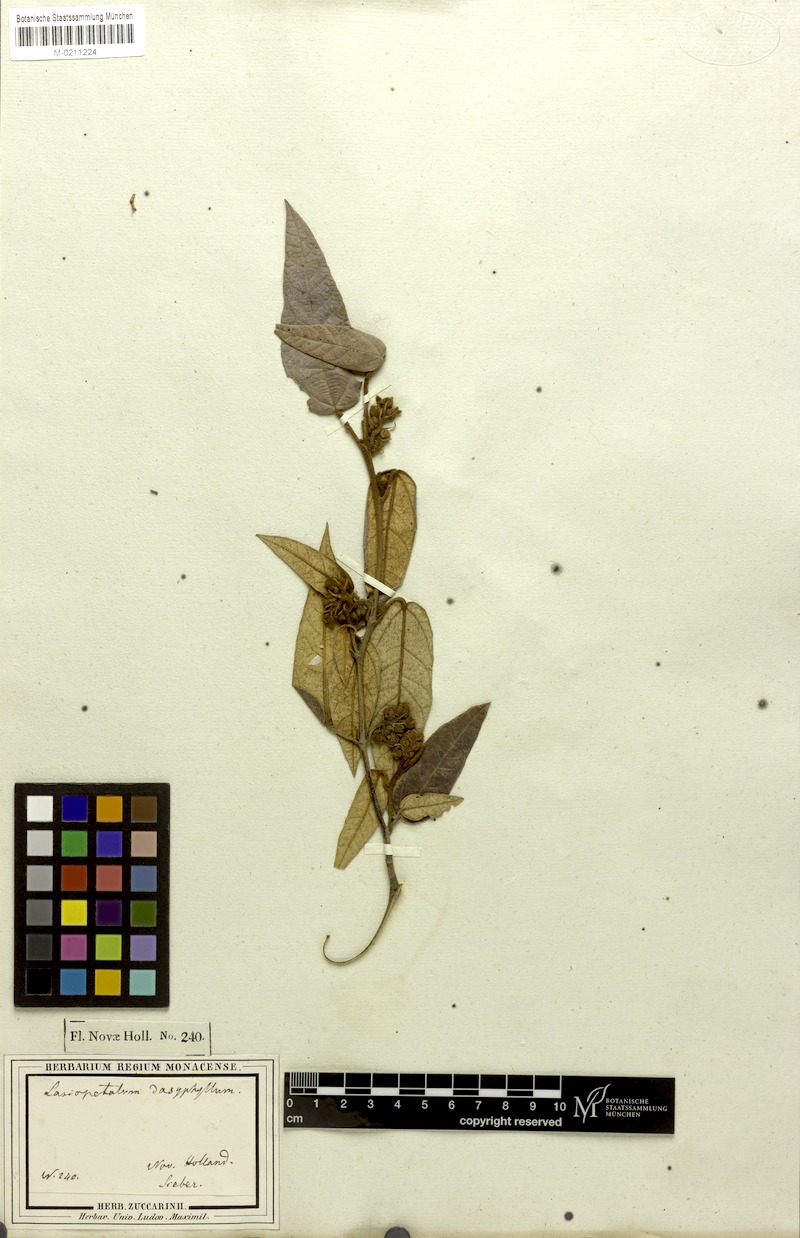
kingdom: Plantae
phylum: Tracheophyta
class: Magnoliopsida
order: Malvales
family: Malvaceae
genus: Lasiopetalum
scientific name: Lasiopetalum macrophyllum
